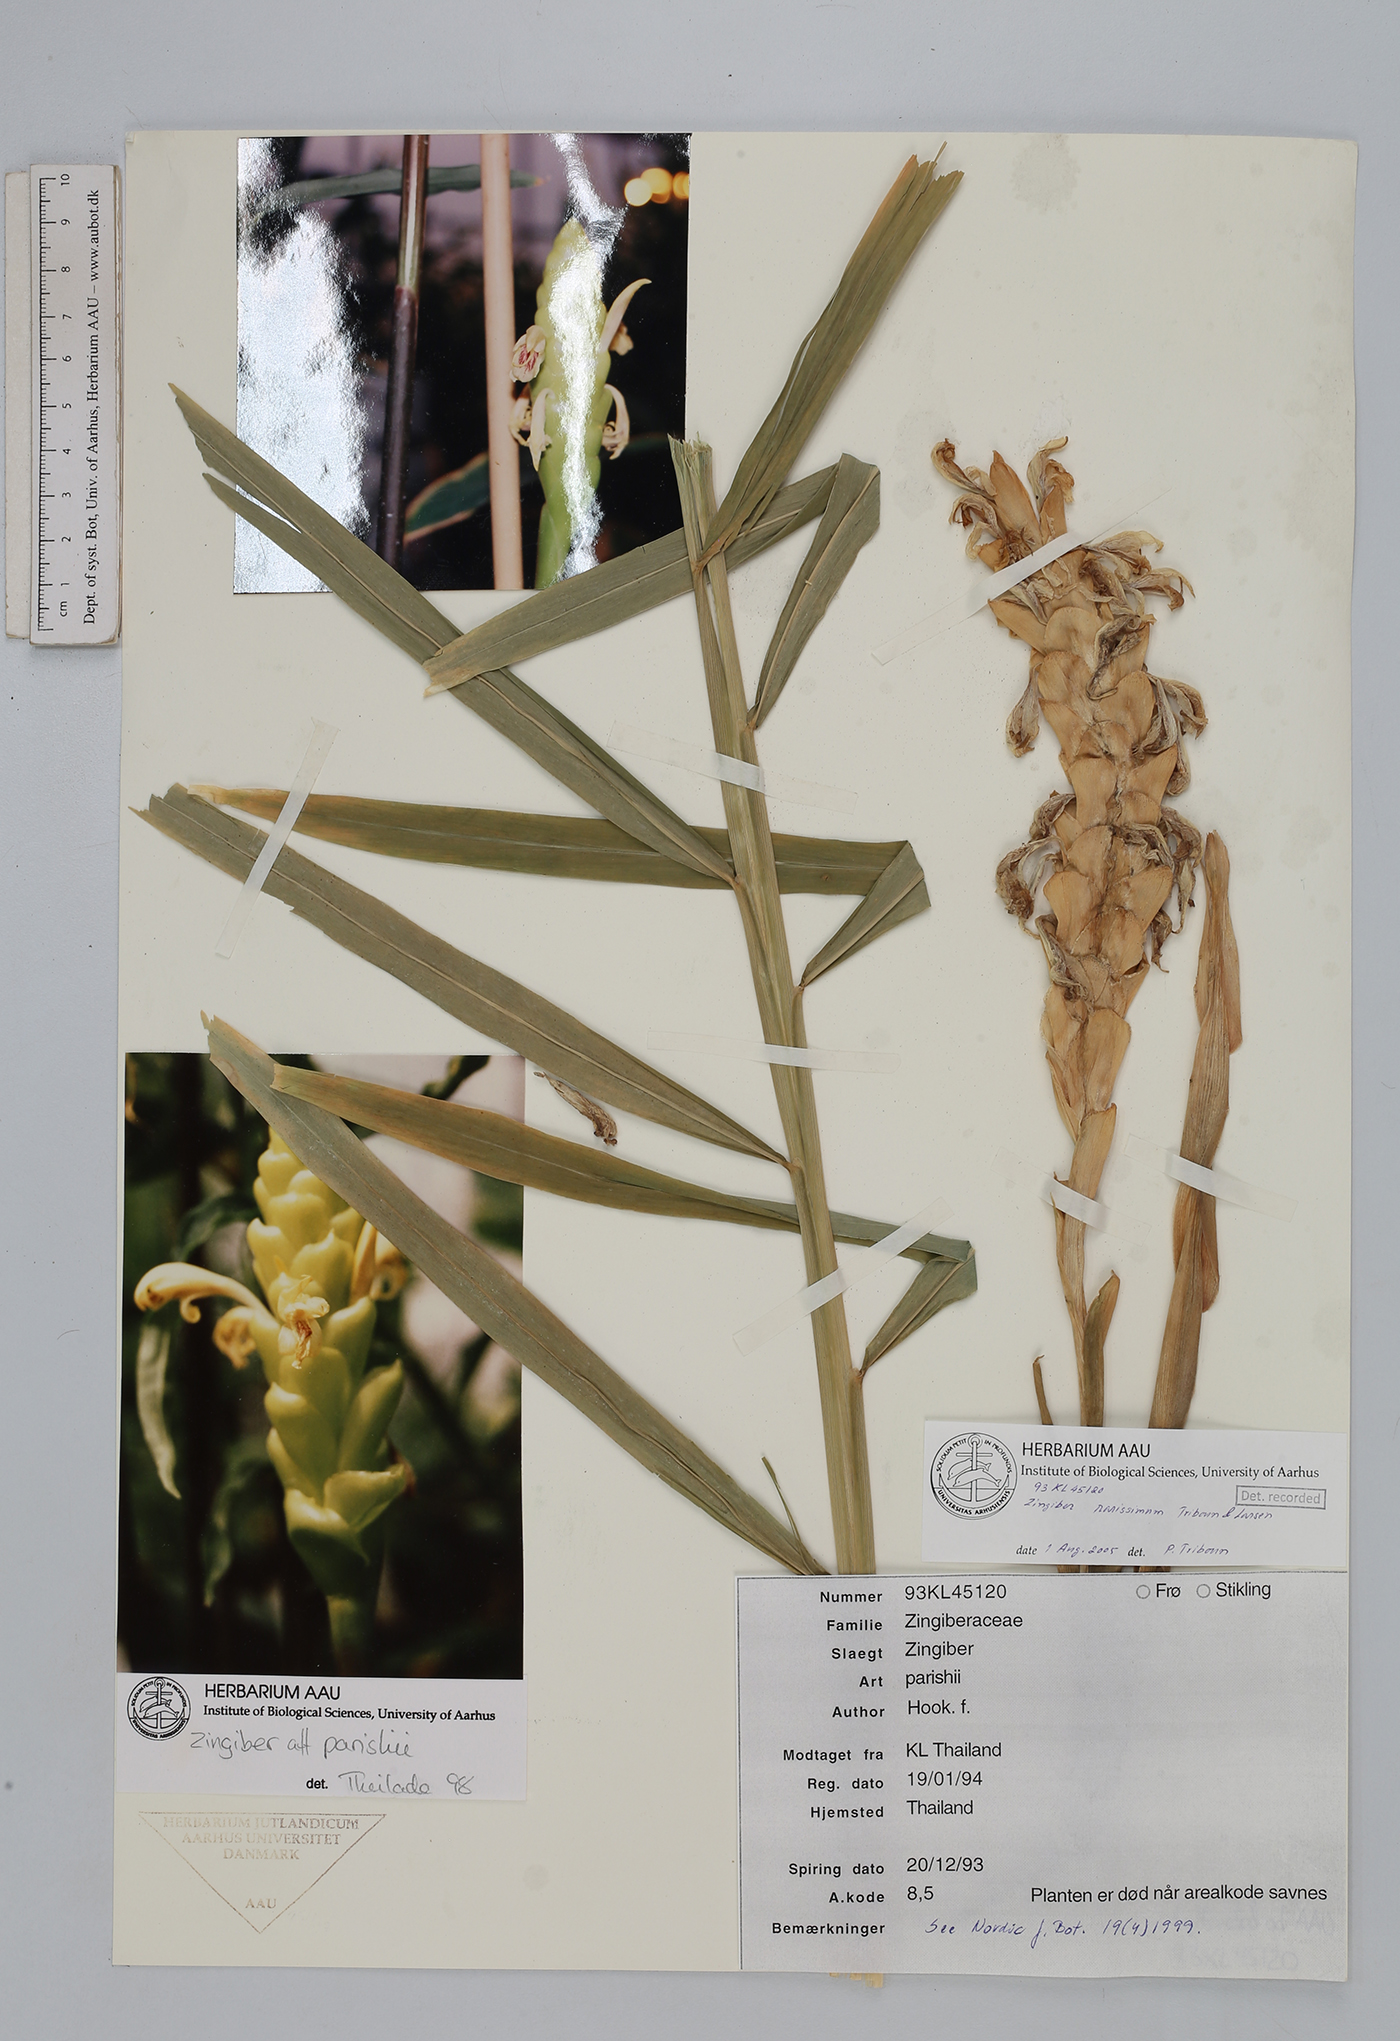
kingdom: Plantae
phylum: Tracheophyta
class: Liliopsida
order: Zingiberales
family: Zingiberaceae
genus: Zingiber
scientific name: Zingiber parishii
